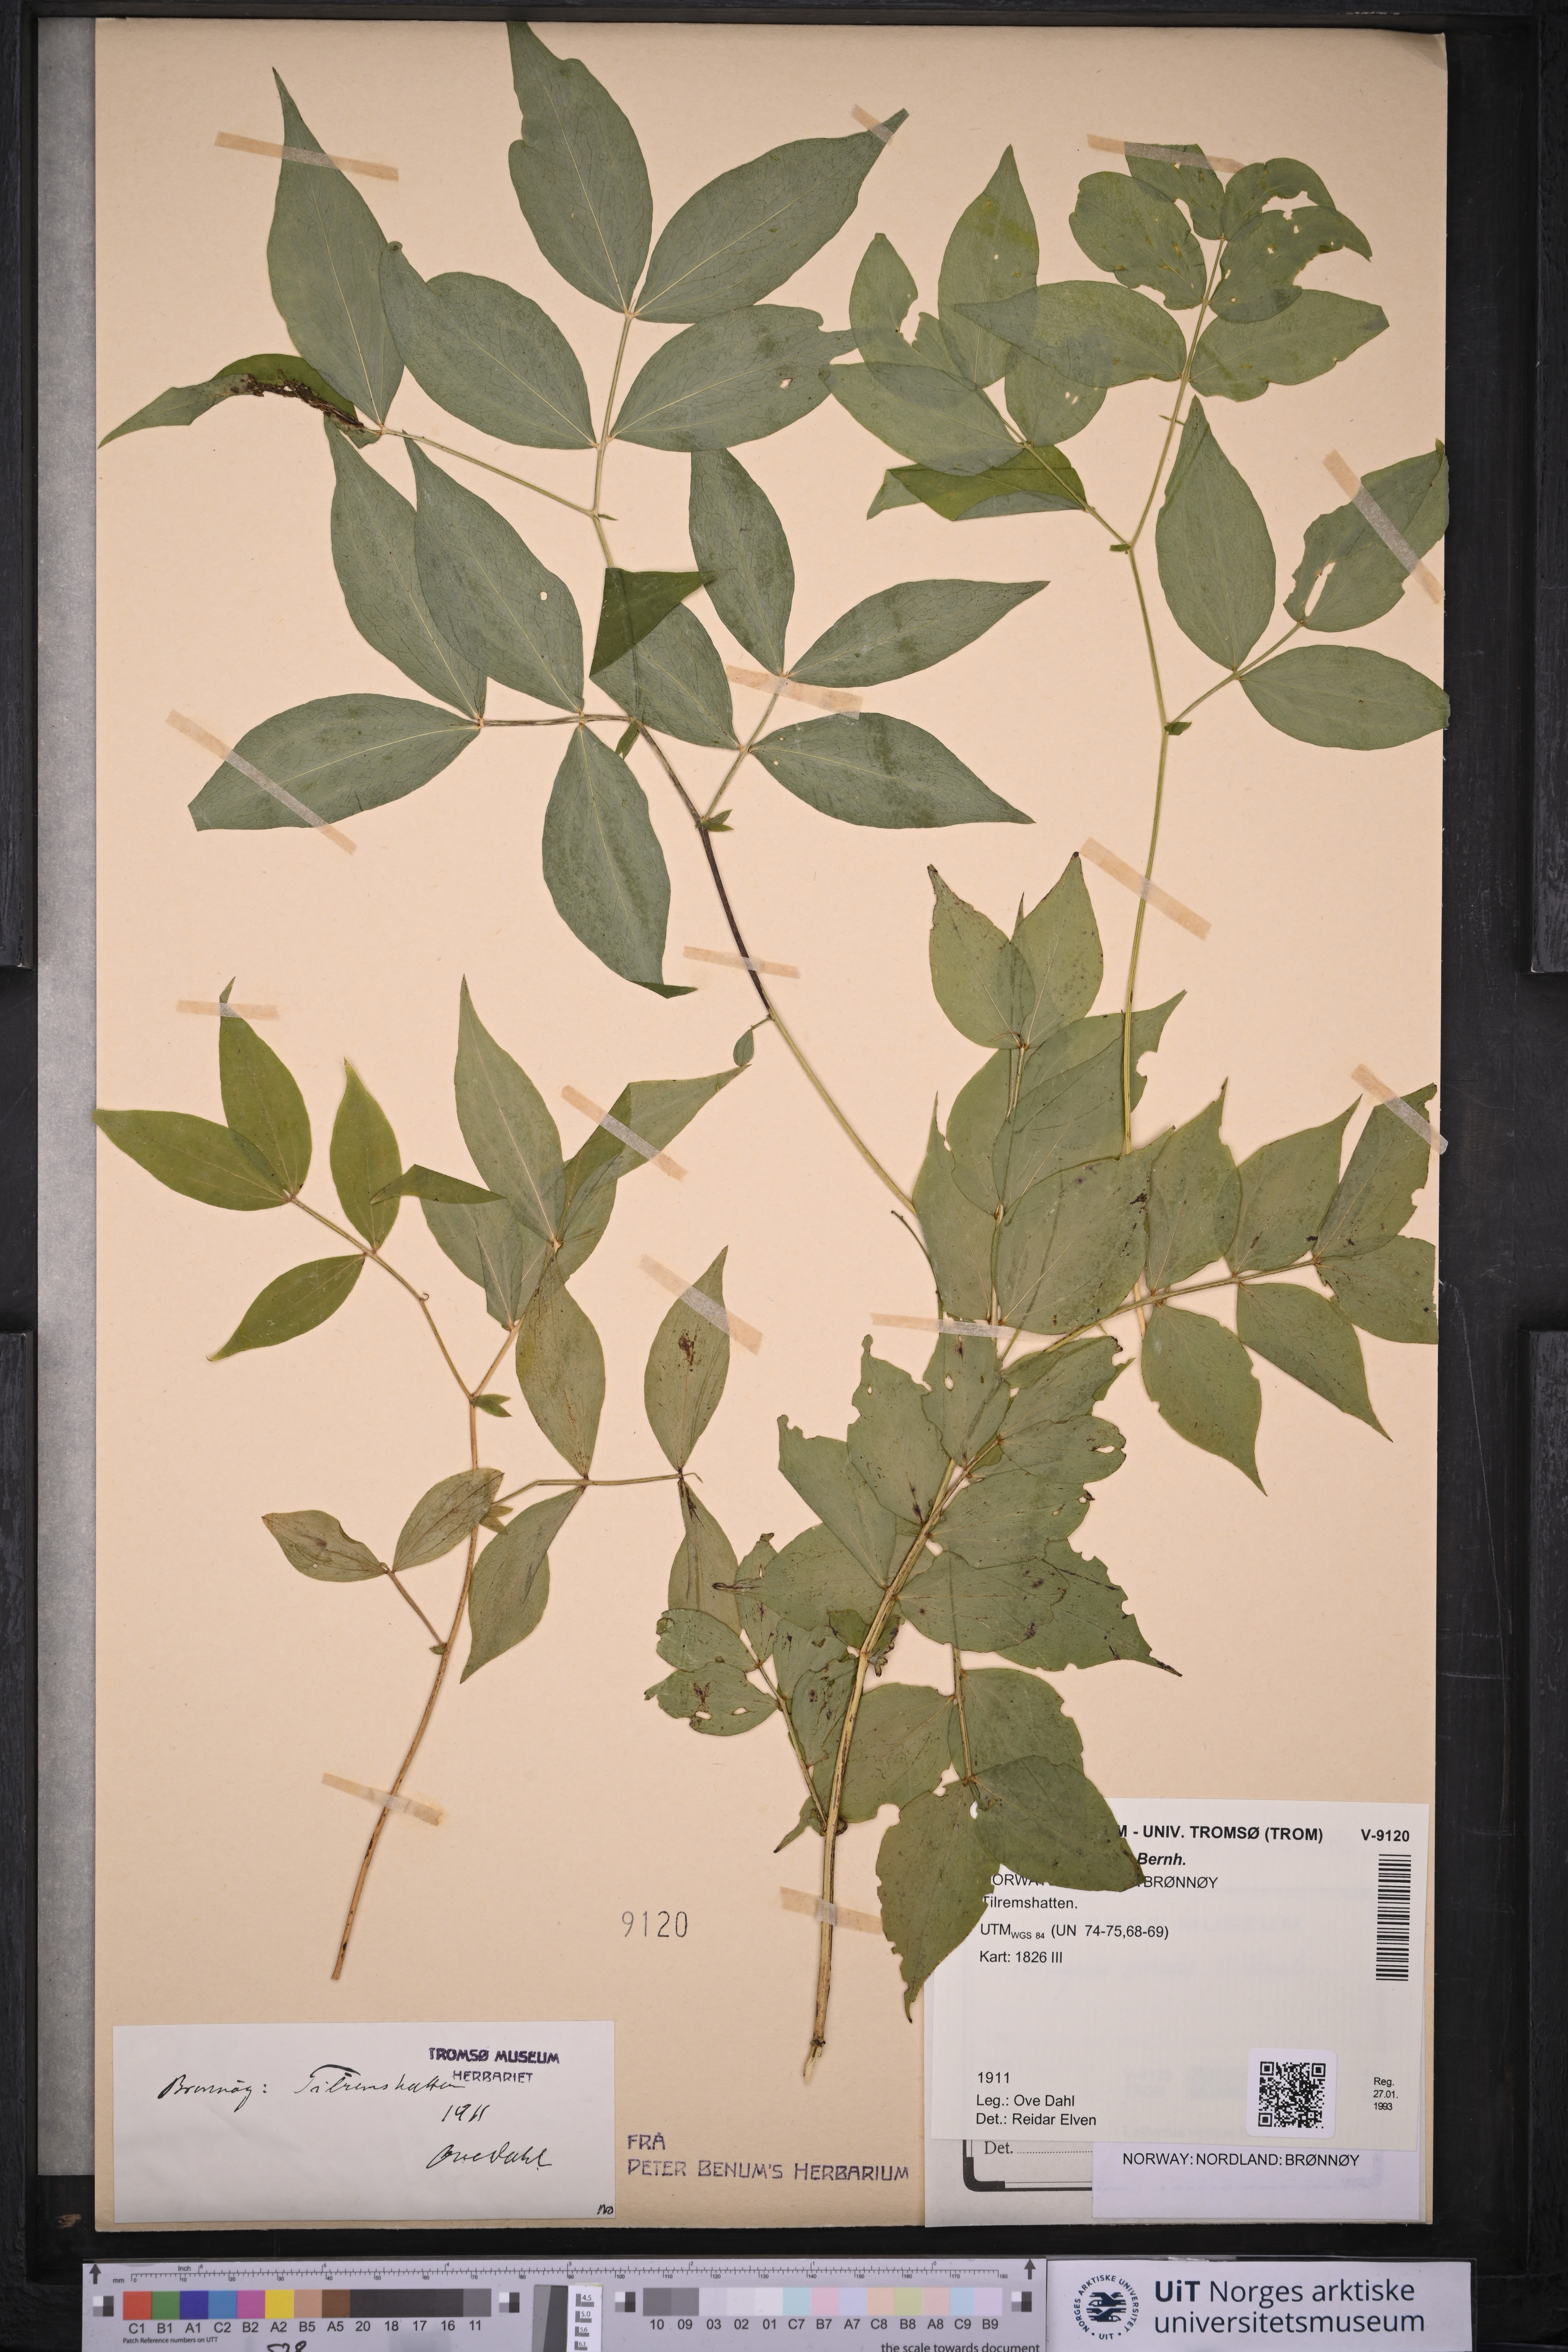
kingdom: Plantae
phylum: Tracheophyta
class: Magnoliopsida
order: Fabales
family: Fabaceae
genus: Lathyrus
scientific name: Lathyrus vernus
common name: Spring pea
